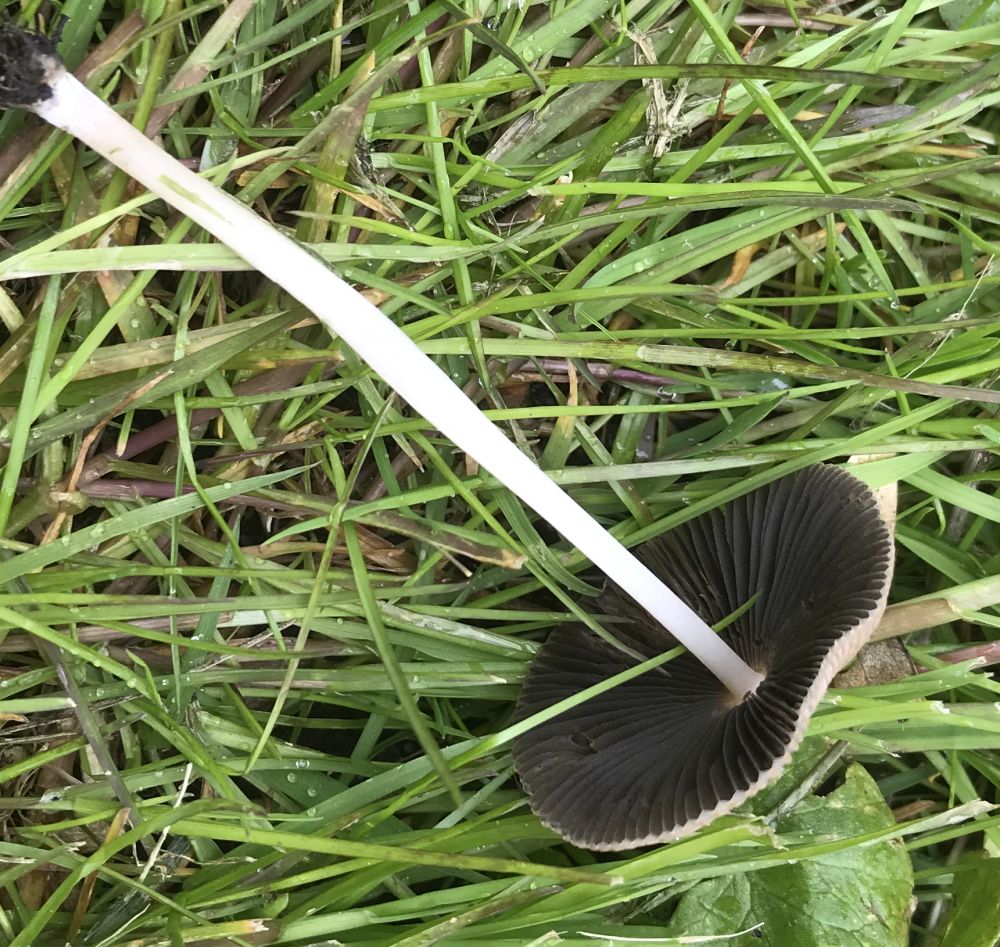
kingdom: Fungi
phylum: Basidiomycota
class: Agaricomycetes
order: Agaricales
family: Psathyrellaceae
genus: Parasola
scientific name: Parasola
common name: hjulhat
